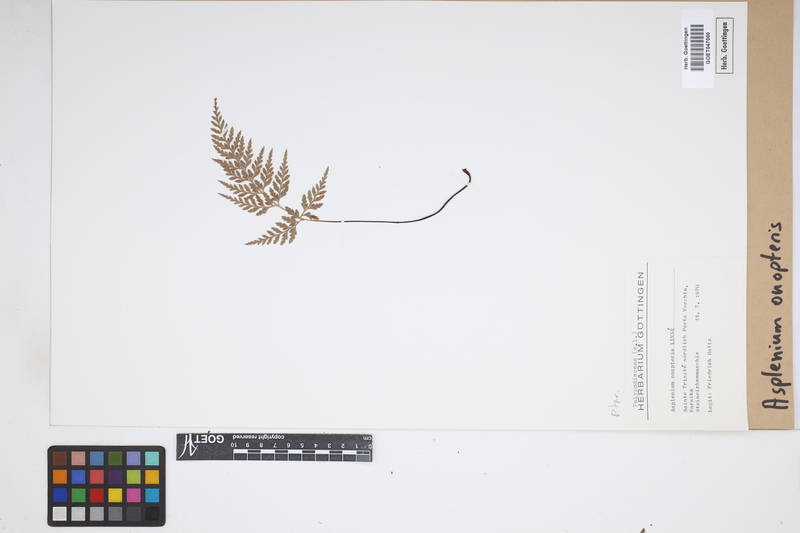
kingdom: Plantae
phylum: Tracheophyta
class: Polypodiopsida
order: Polypodiales
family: Aspleniaceae
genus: Asplenium
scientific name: Asplenium onopteris
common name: Irish spleenwort
